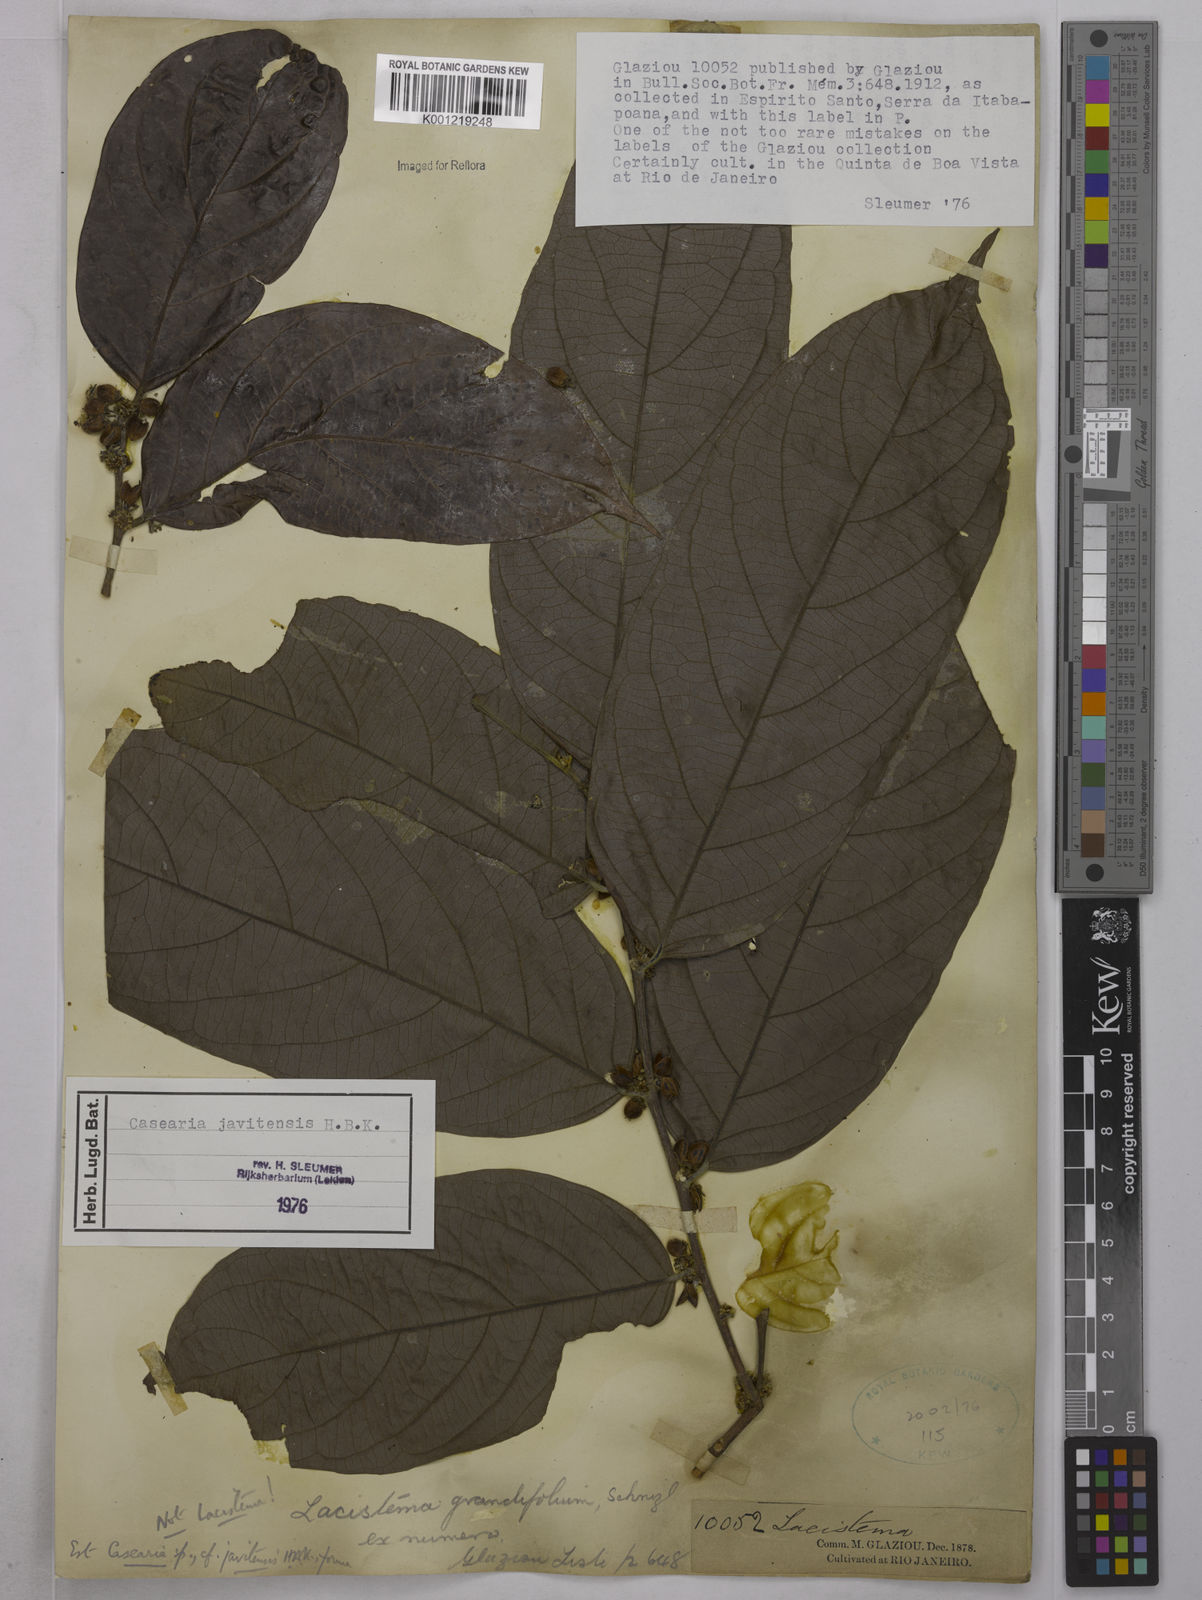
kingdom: Plantae
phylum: Tracheophyta
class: Magnoliopsida
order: Malpighiales
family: Salicaceae
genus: Piparea
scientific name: Piparea multiflora
